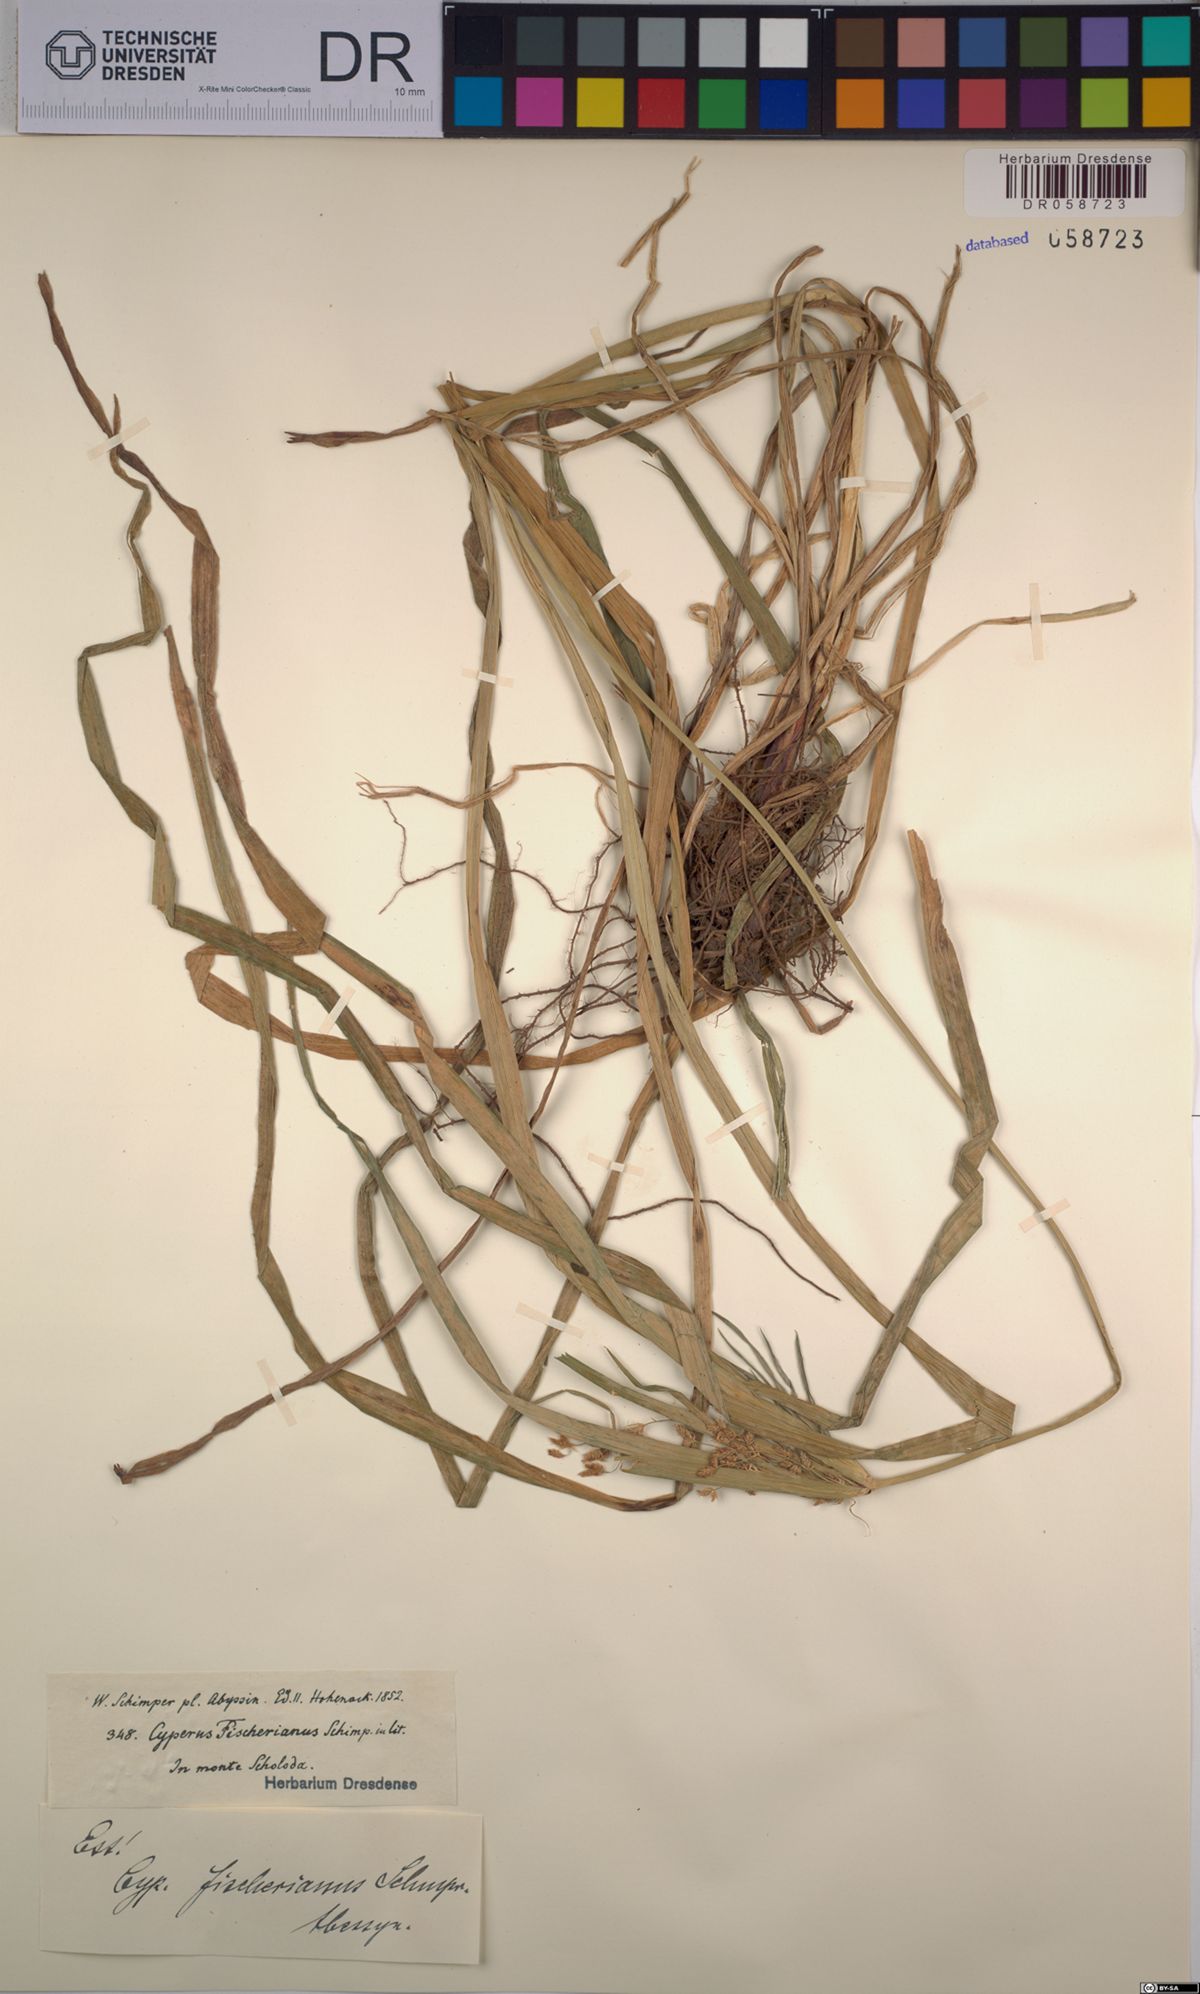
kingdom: Plantae
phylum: Tracheophyta
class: Liliopsida
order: Poales
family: Cyperaceae
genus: Cyperus
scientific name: Cyperus fischerianus
